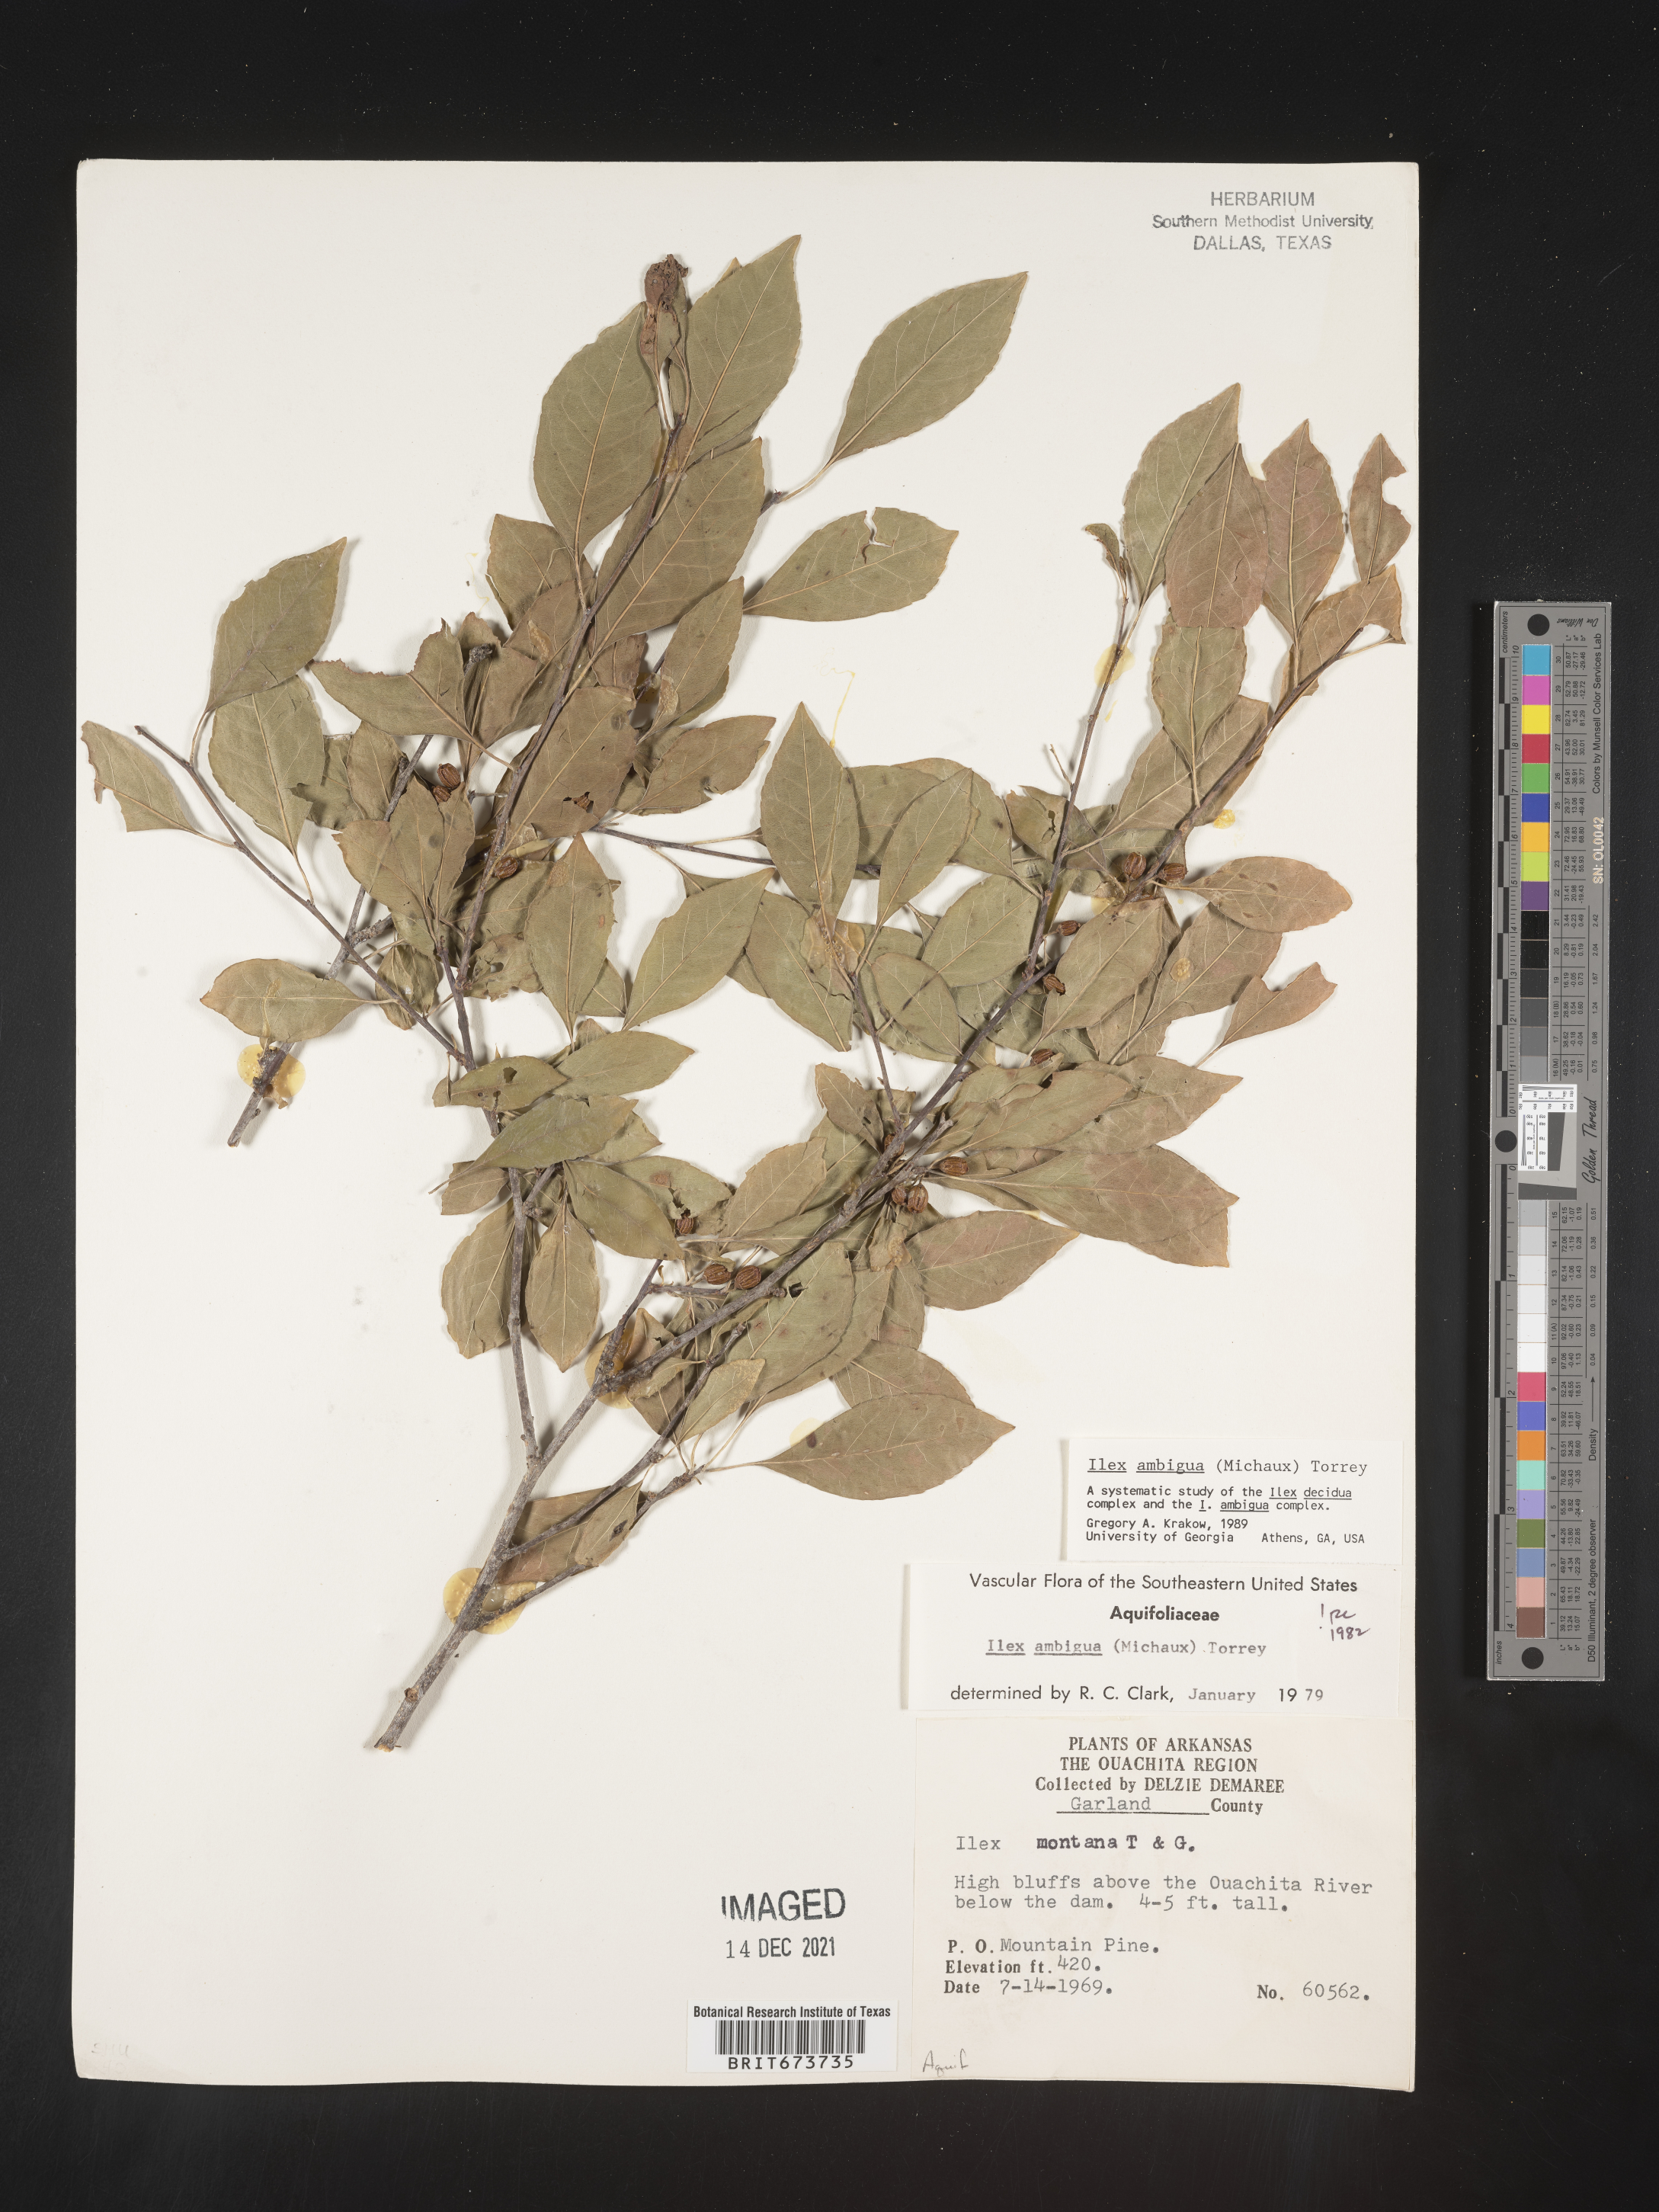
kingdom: Plantae
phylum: Tracheophyta
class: Magnoliopsida
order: Aquifoliales
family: Aquifoliaceae
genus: Ilex
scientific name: Ilex ambigua
